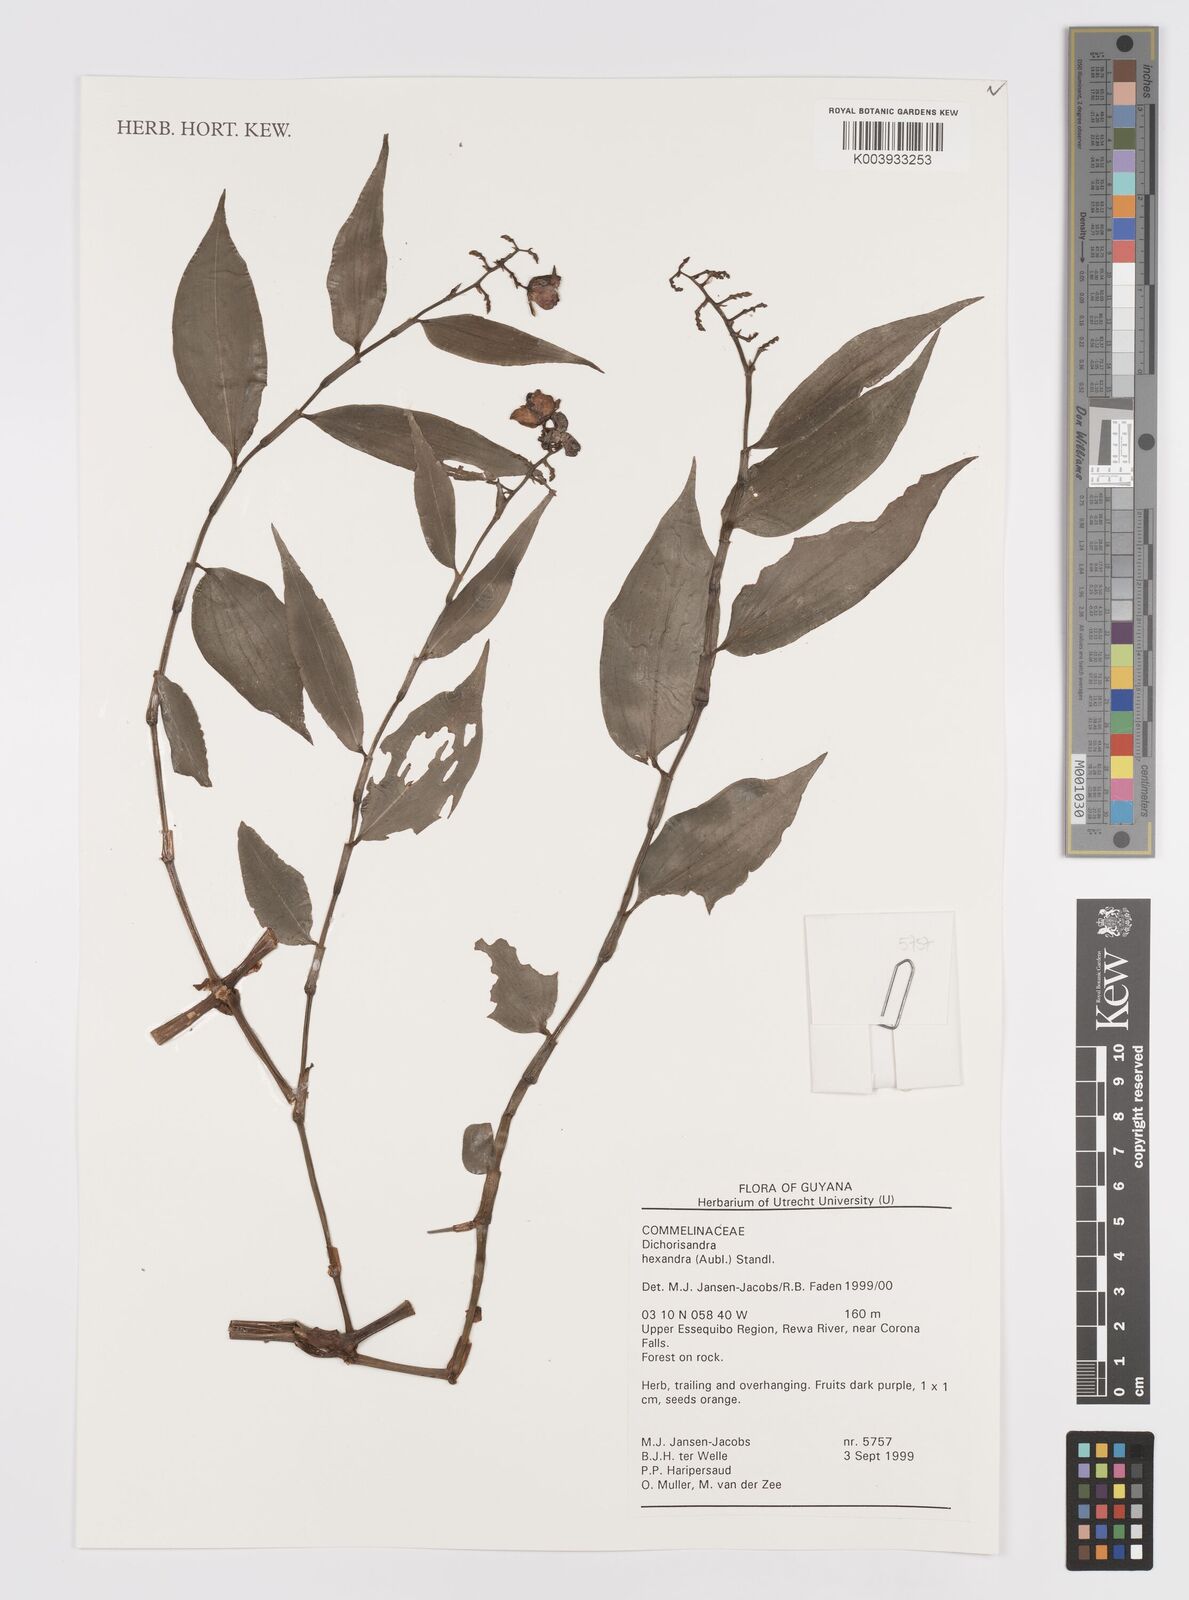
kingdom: Plantae
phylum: Tracheophyta
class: Liliopsida
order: Commelinales
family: Commelinaceae
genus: Dichorisandra
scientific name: Dichorisandra hexandra
